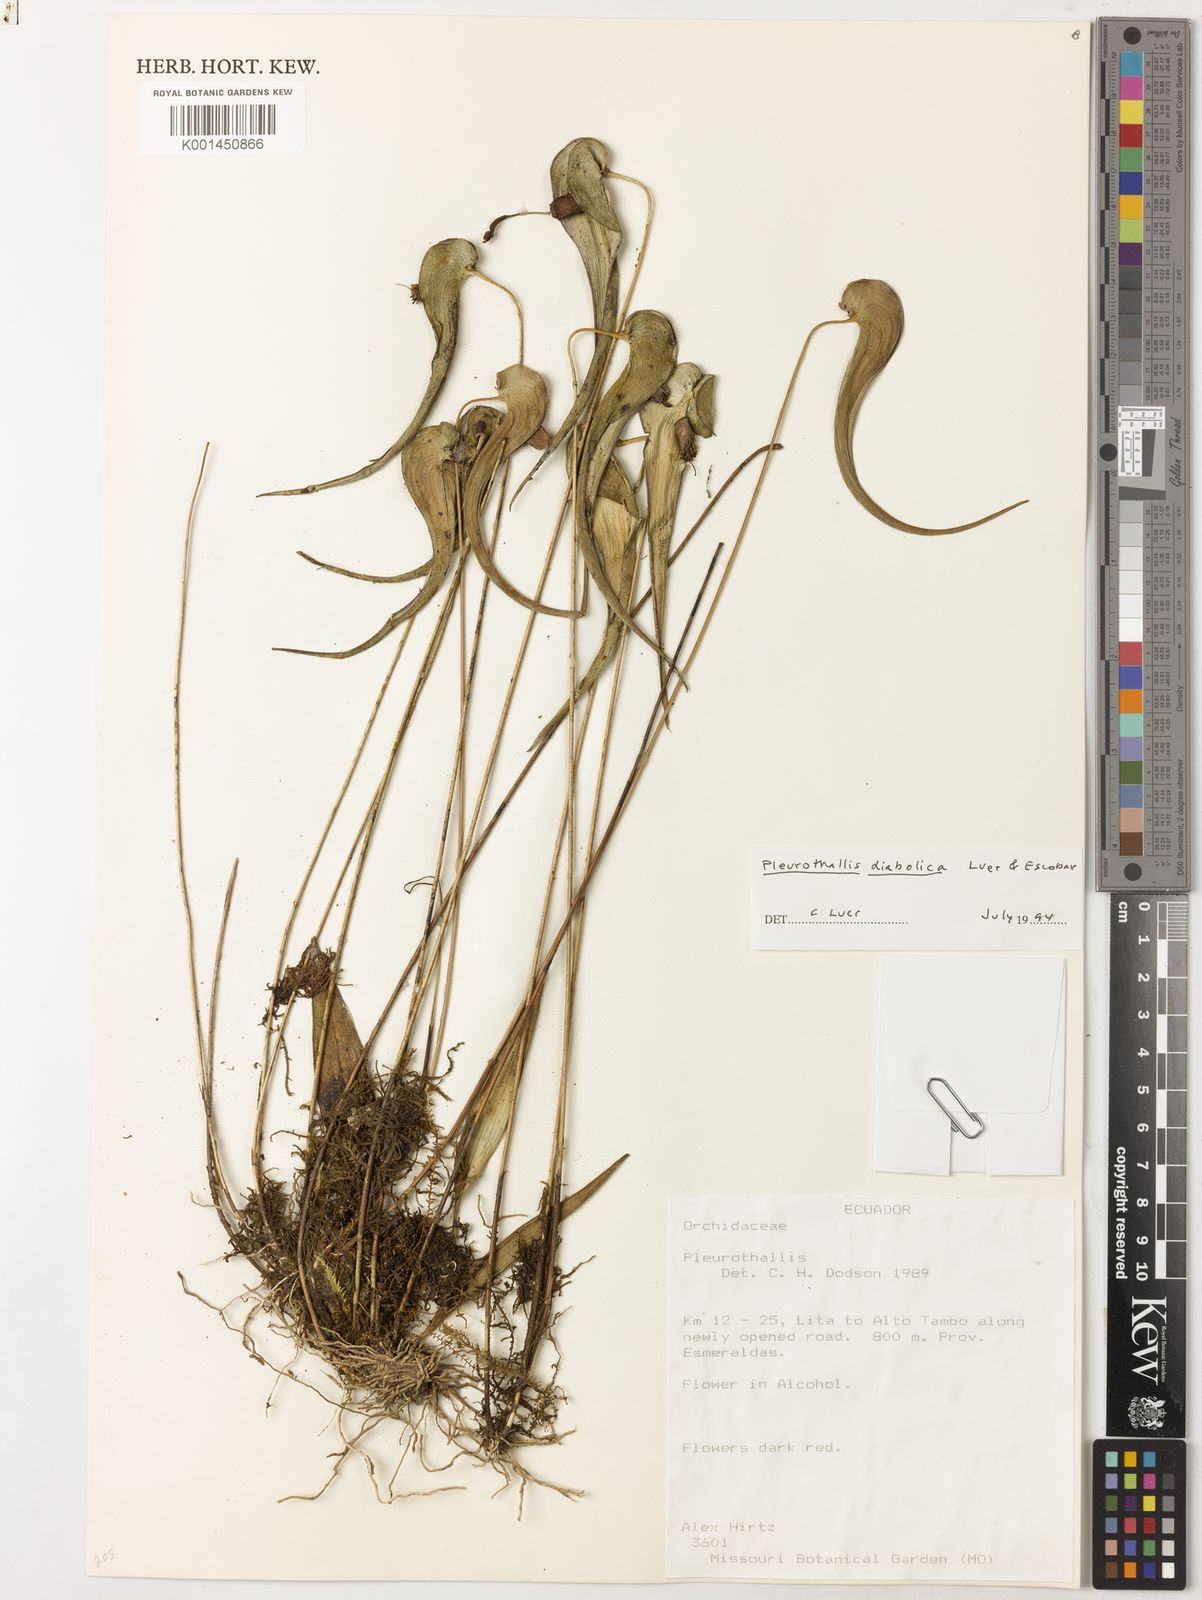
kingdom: Plantae
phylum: Tracheophyta
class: Liliopsida
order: Asparagales
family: Orchidaceae
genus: Pleurothallis
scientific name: Pleurothallis diabolica
